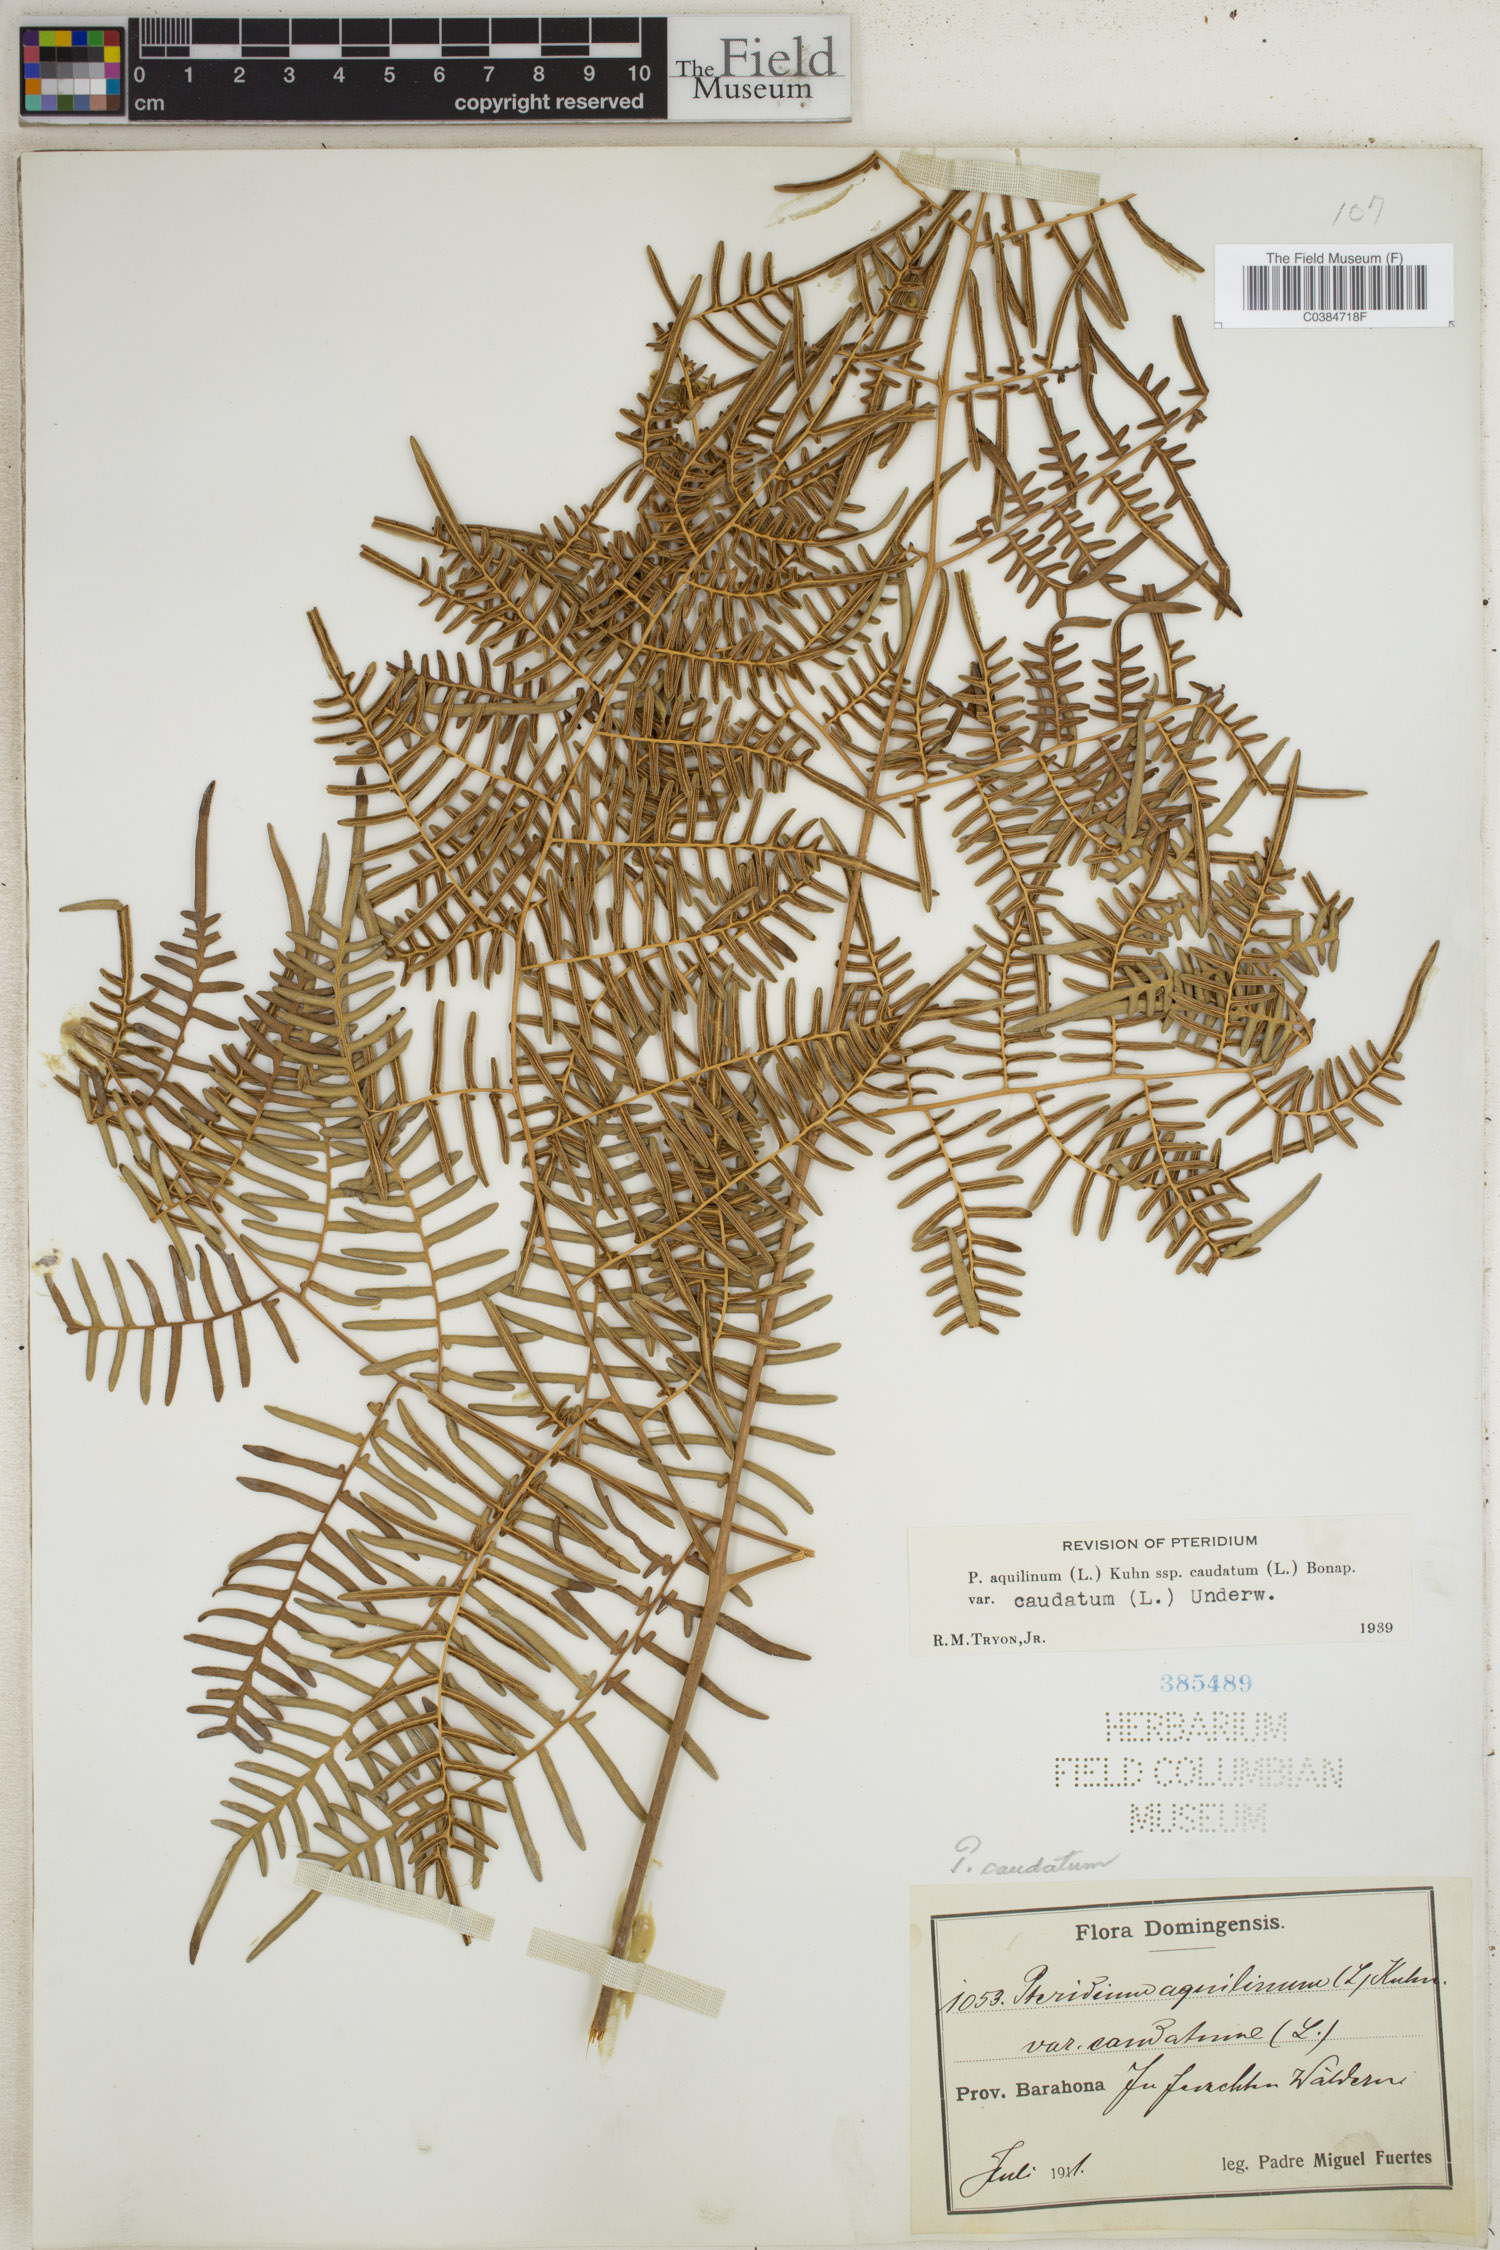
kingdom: Plantae
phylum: Tracheophyta
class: Polypodiopsida
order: Polypodiales
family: Dennstaedtiaceae
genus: Pteridium
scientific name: Pteridium caudatum
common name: Southern bracken fern
